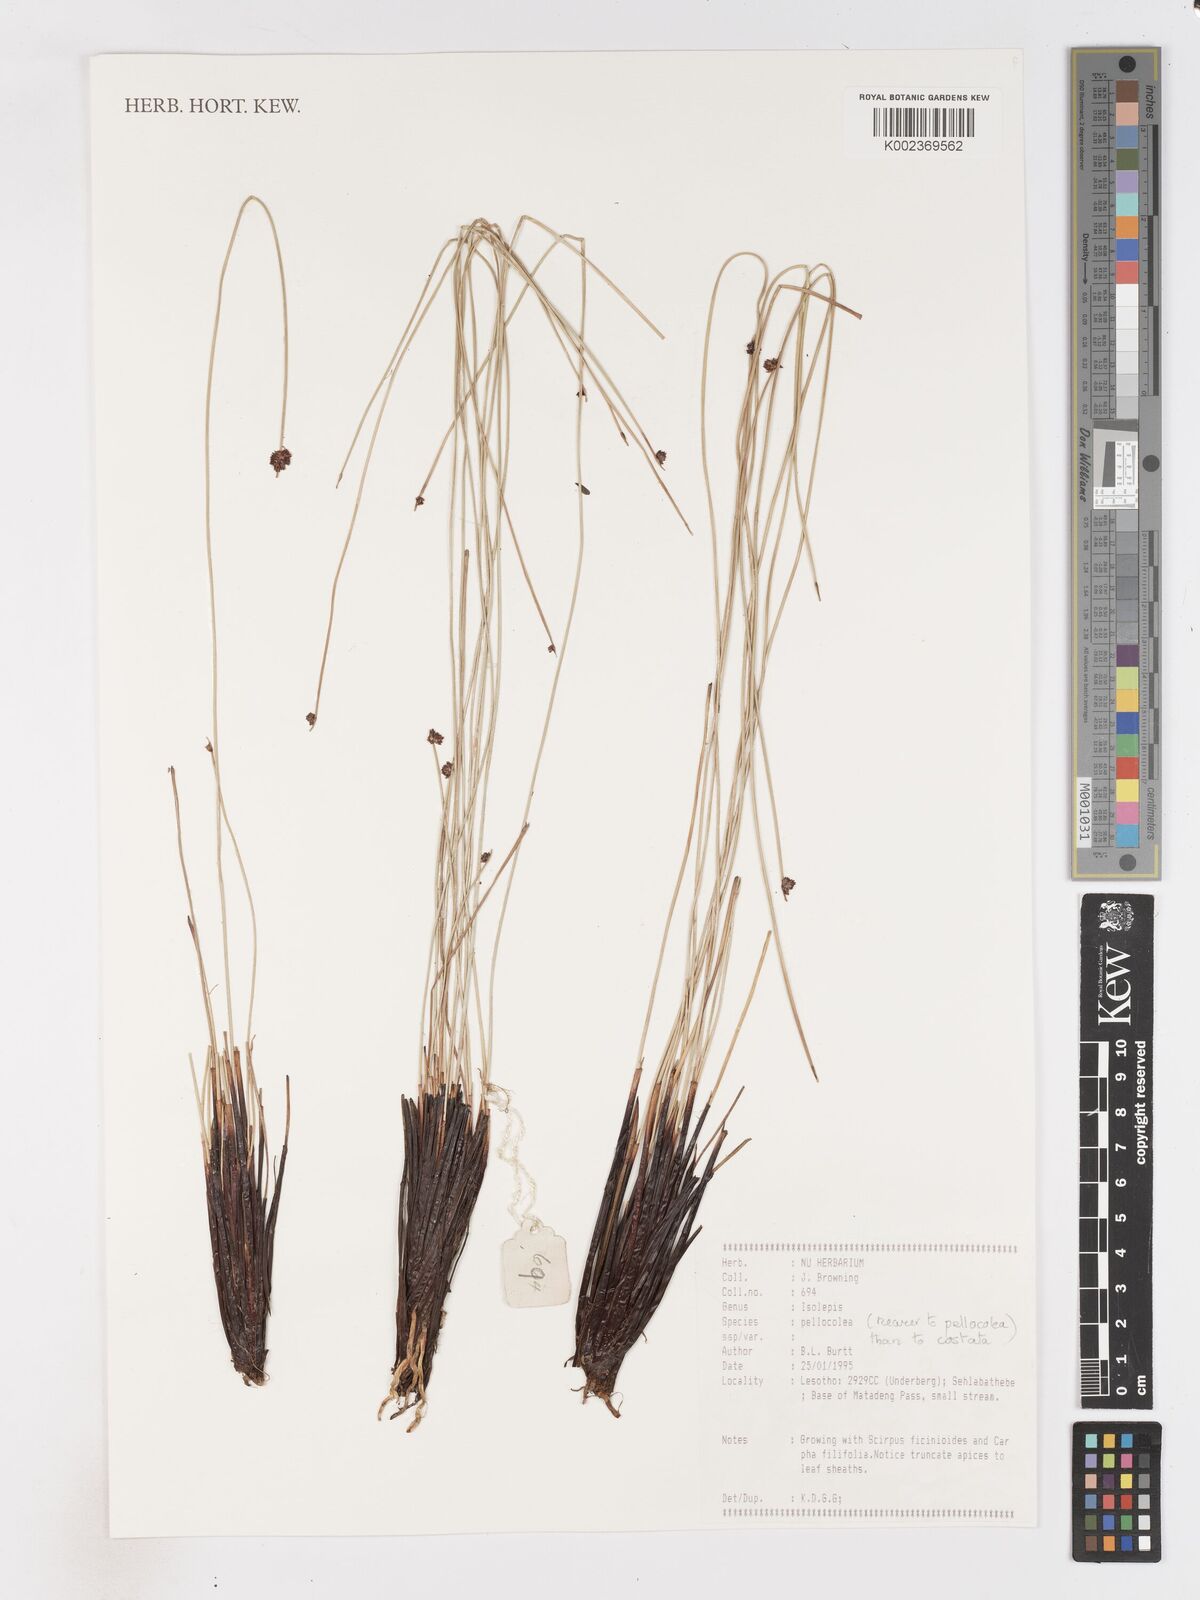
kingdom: Plantae
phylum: Tracheophyta
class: Liliopsida
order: Poales
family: Cyperaceae
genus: Isolepis
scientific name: Isolepis pellocolea
